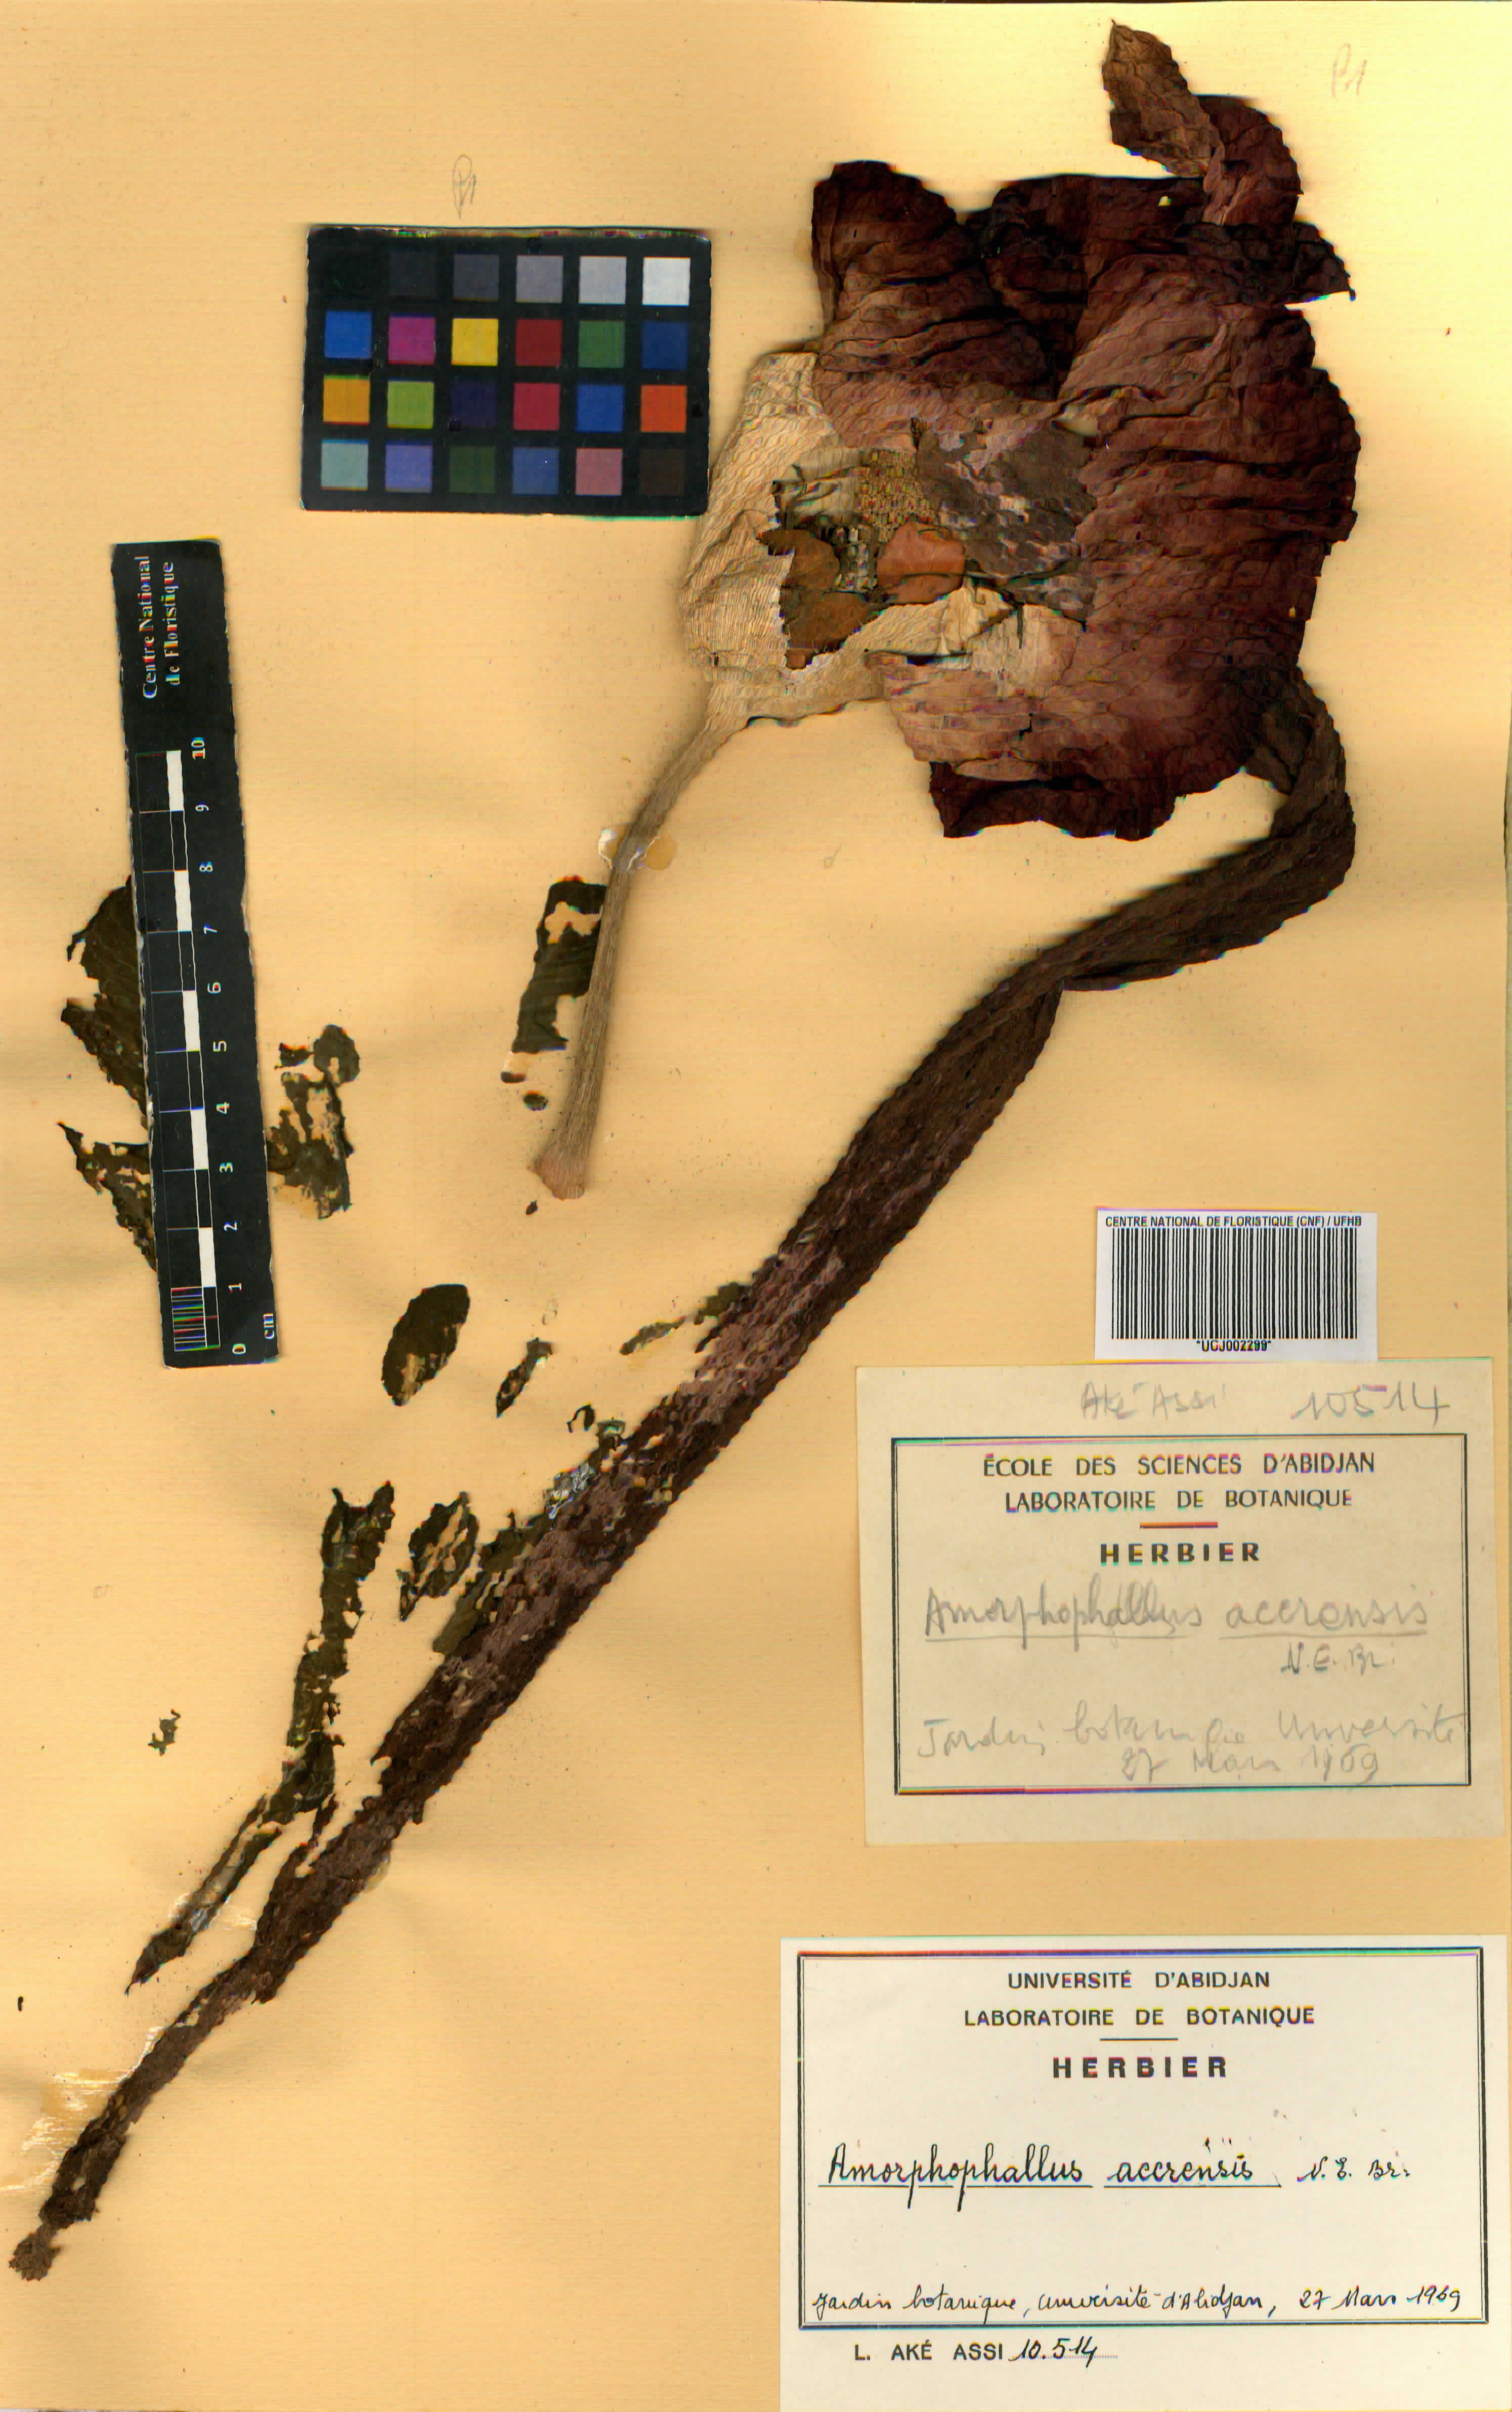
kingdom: Plantae
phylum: Tracheophyta
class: Liliopsida
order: Alismatales
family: Araceae
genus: Amorphophallus
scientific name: Amorphophallus johnsonii
